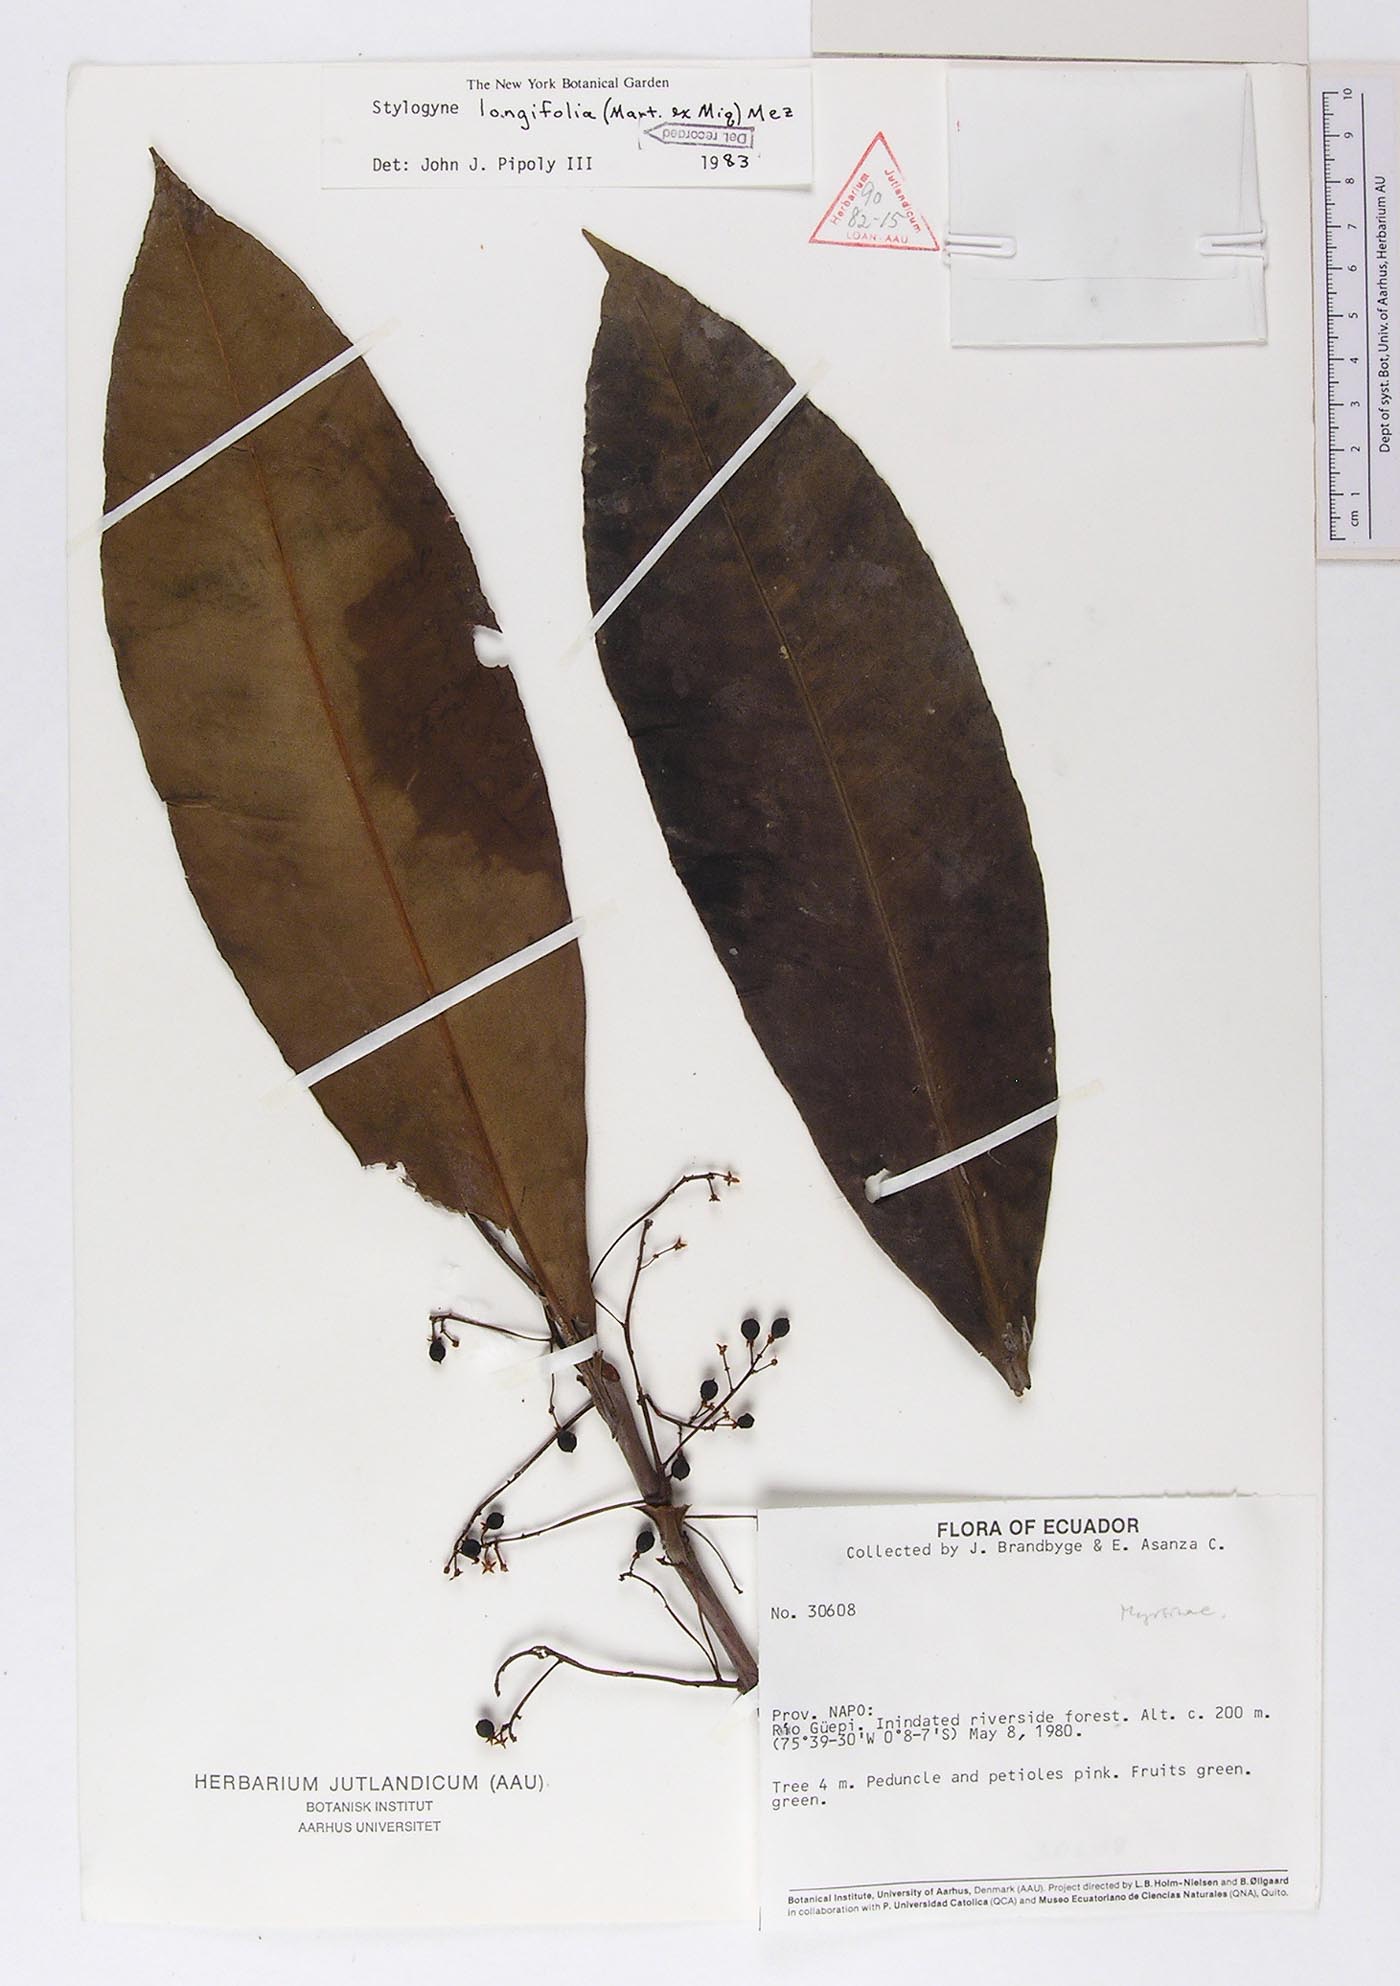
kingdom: Plantae
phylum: Tracheophyta
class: Magnoliopsida
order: Ericales
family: Primulaceae
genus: Stylogyne
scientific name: Stylogyne longifolia
